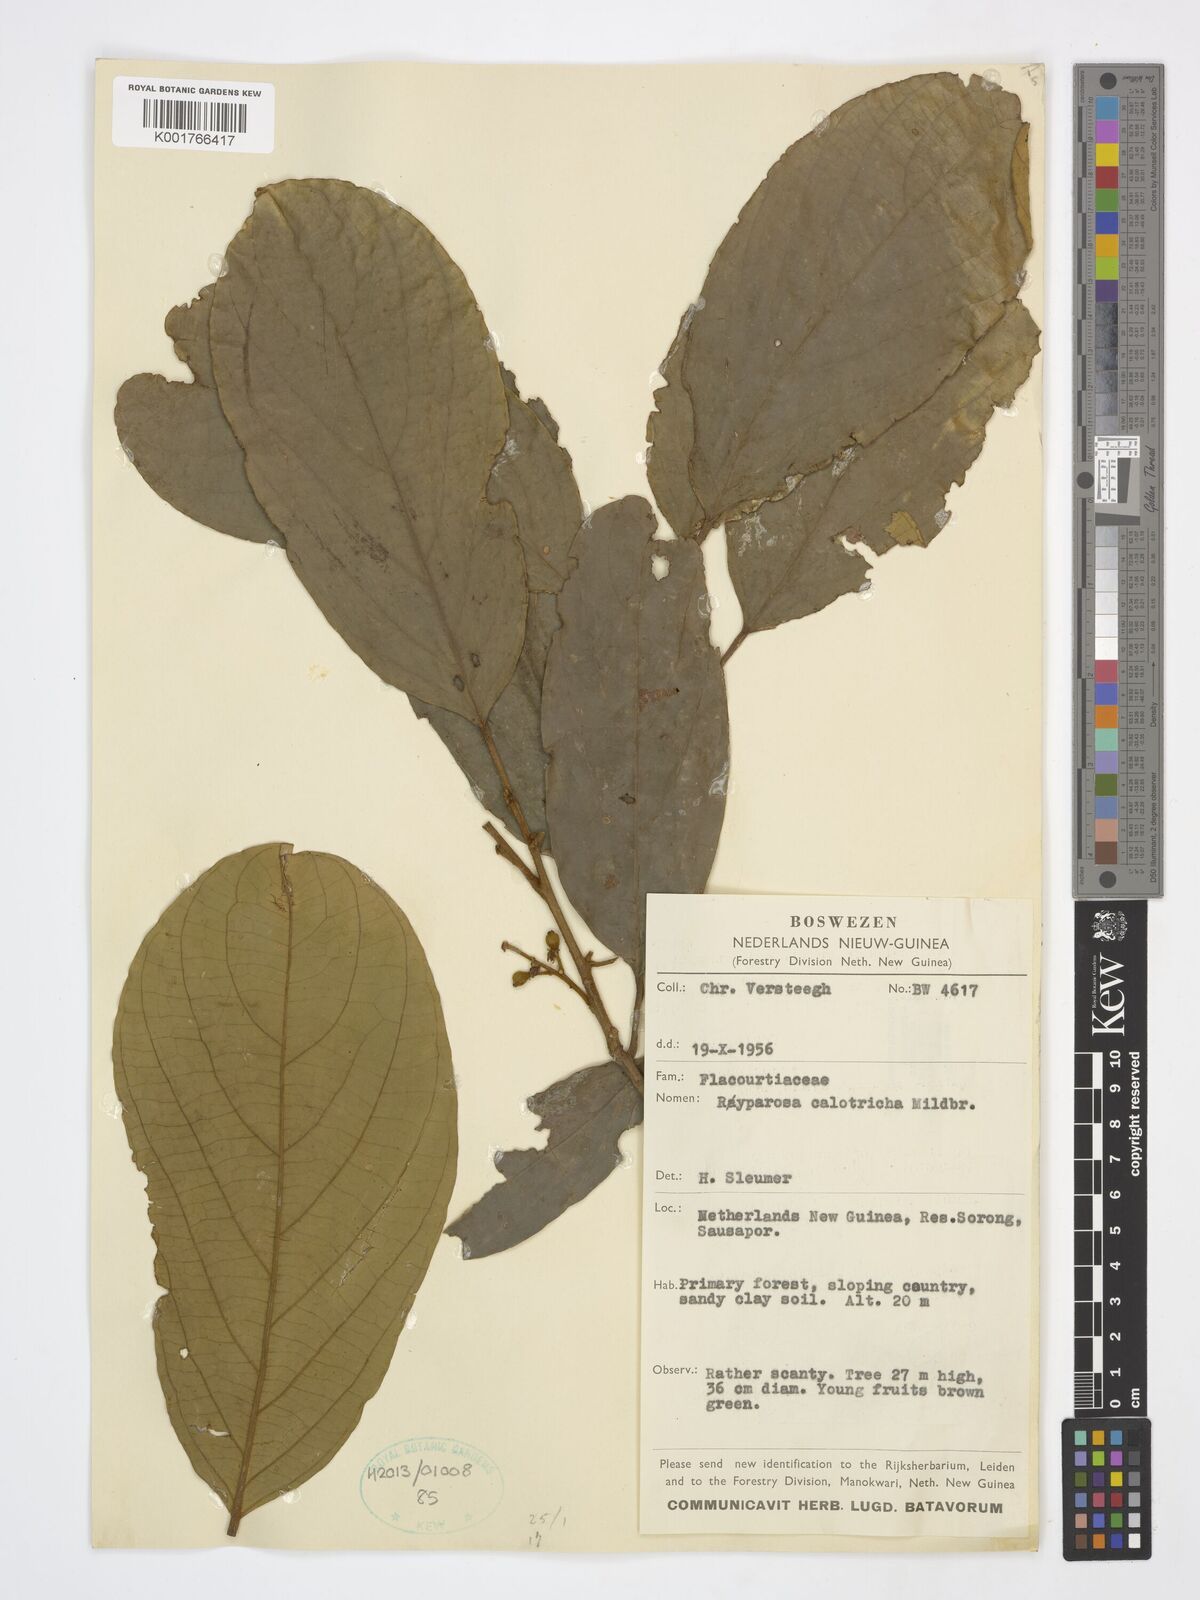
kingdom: Plantae
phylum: Tracheophyta
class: Magnoliopsida
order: Malpighiales
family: Achariaceae
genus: Ryparosa
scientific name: Ryparosa calotricha
